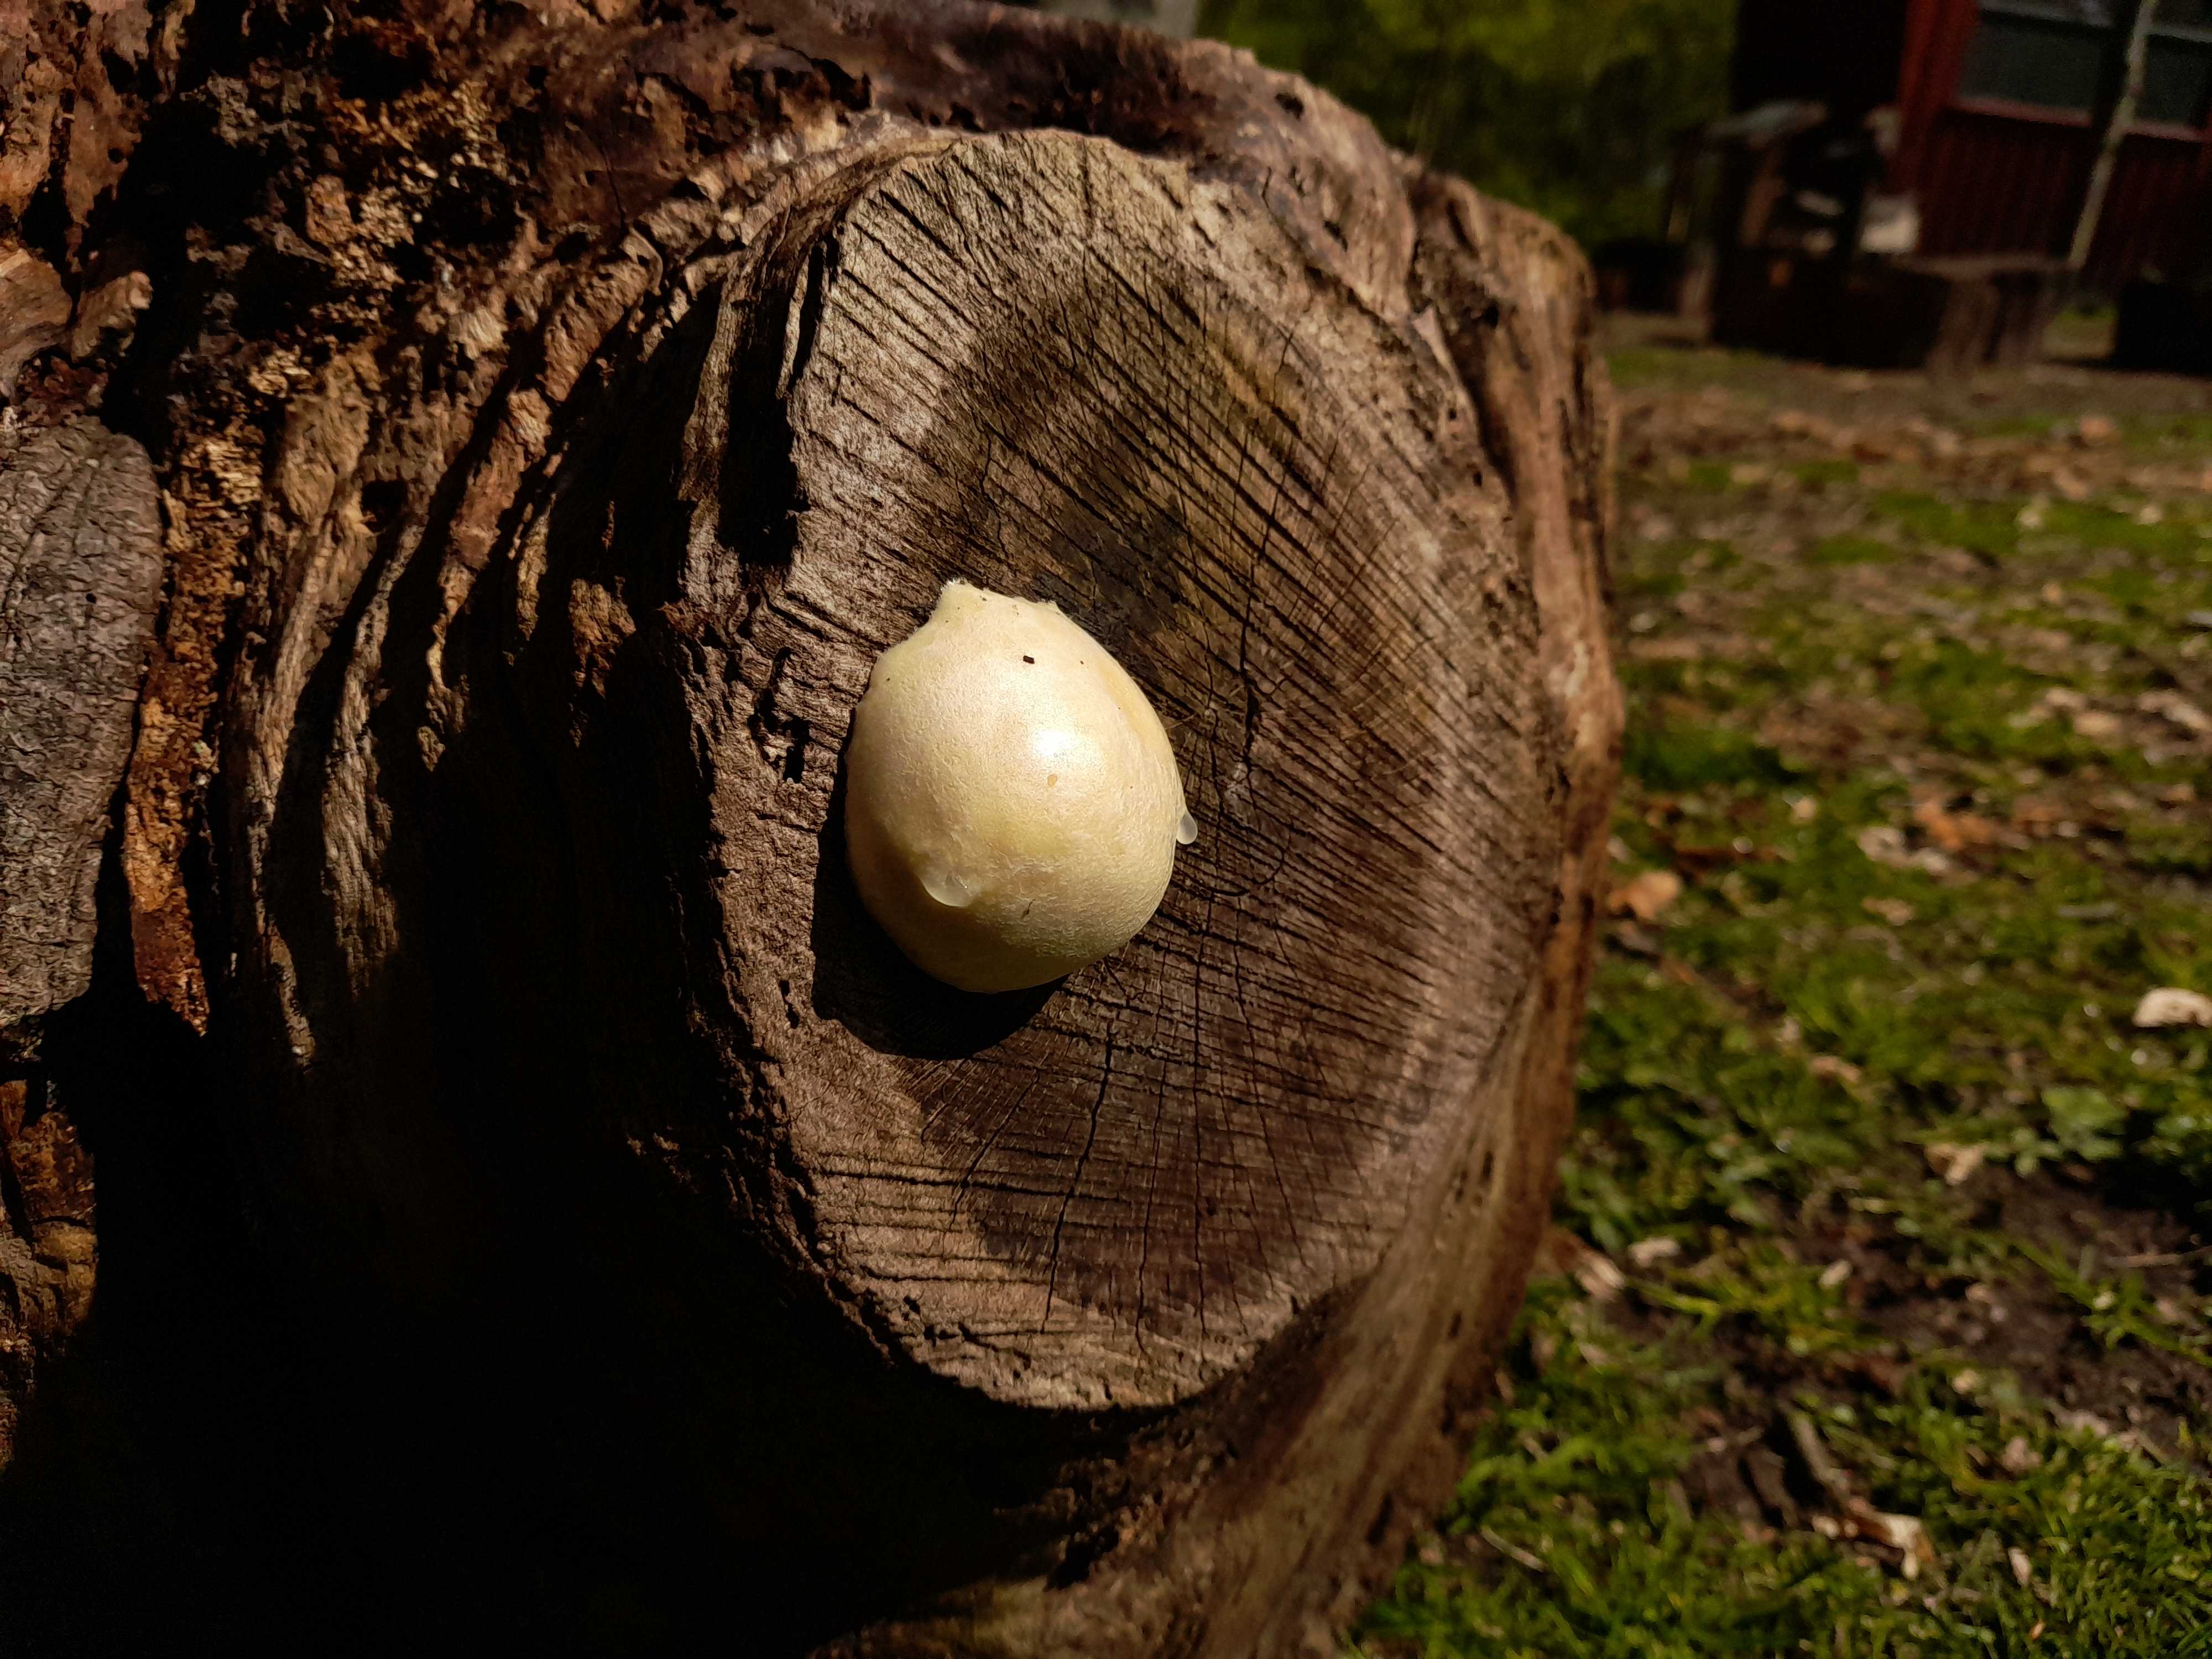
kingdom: Protozoa
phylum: Mycetozoa
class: Myxomycetes
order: Cribrariales
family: Tubiferaceae
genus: Reticularia
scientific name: Reticularia lycoperdon
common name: skinnende støvpude
